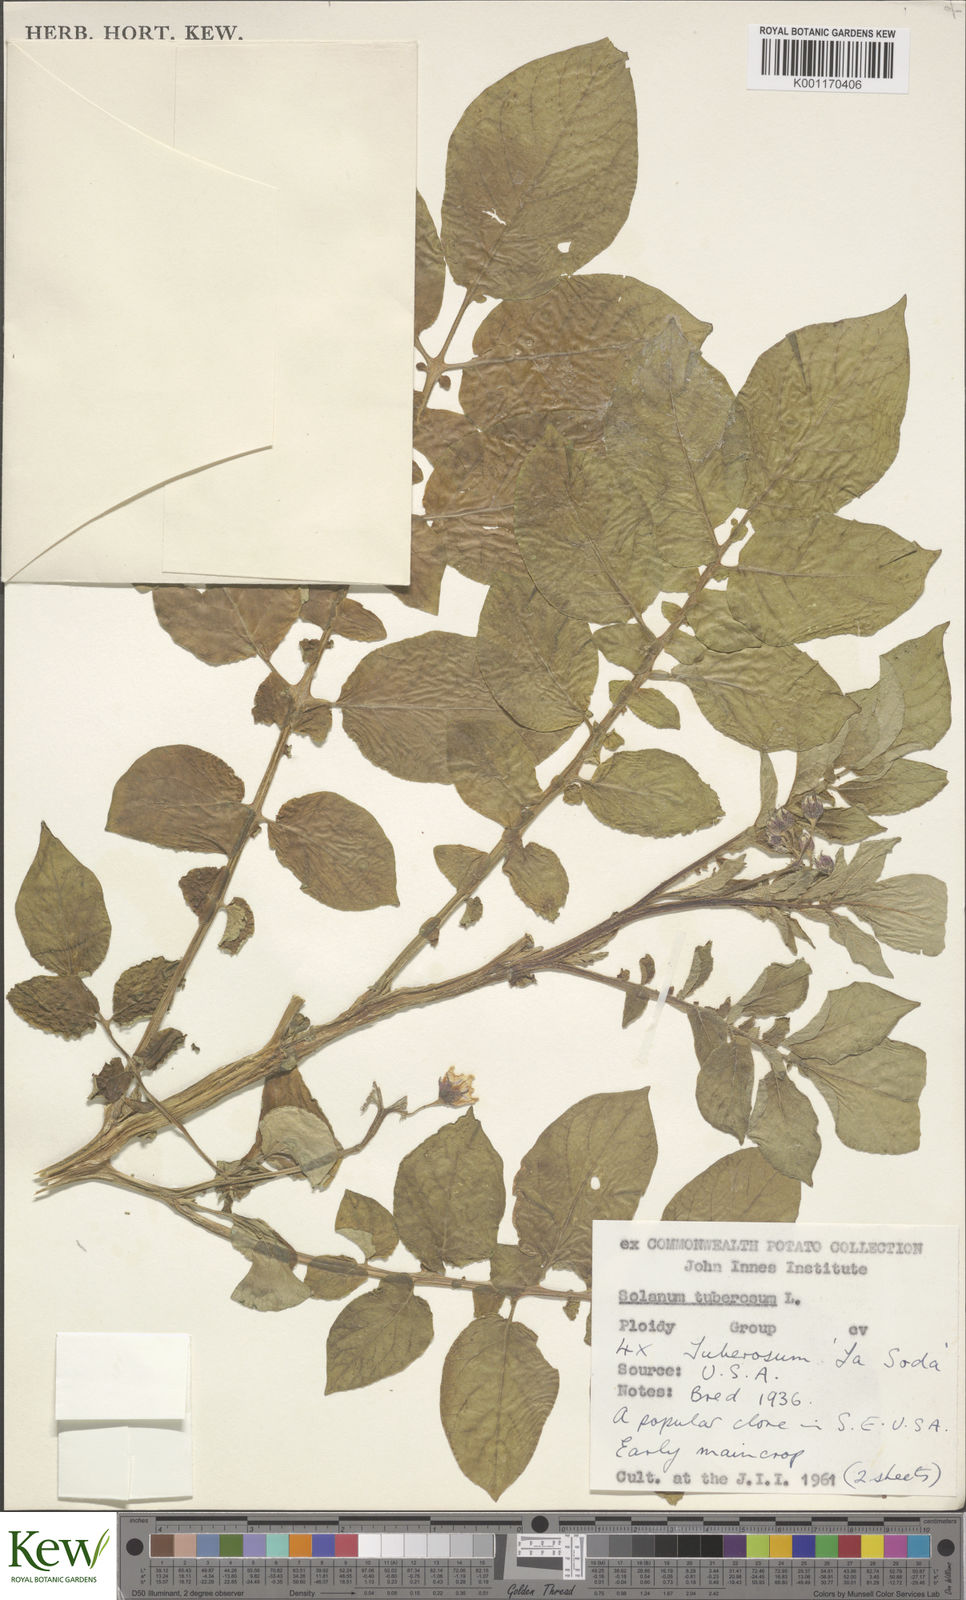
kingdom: Plantae
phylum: Tracheophyta
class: Magnoliopsida
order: Solanales
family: Solanaceae
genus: Solanum
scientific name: Solanum tuberosum
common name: Potato
